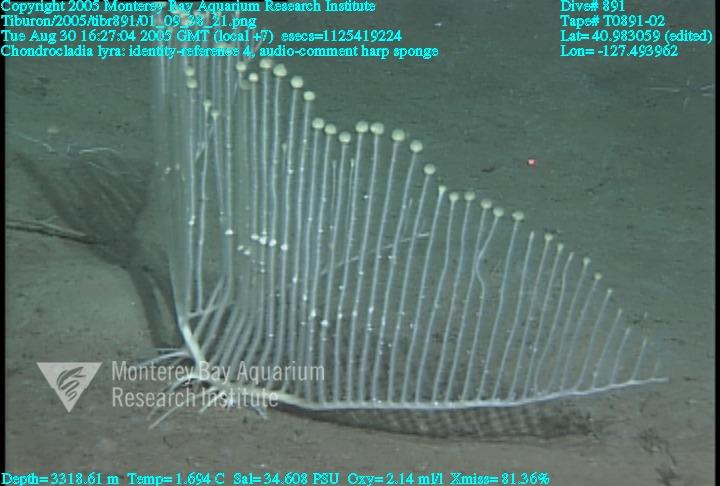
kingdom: Animalia
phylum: Porifera
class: Demospongiae
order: Poecilosclerida
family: Cladorhizidae
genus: Chondrocladia
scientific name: Chondrocladia lyra
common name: Harp sponge
